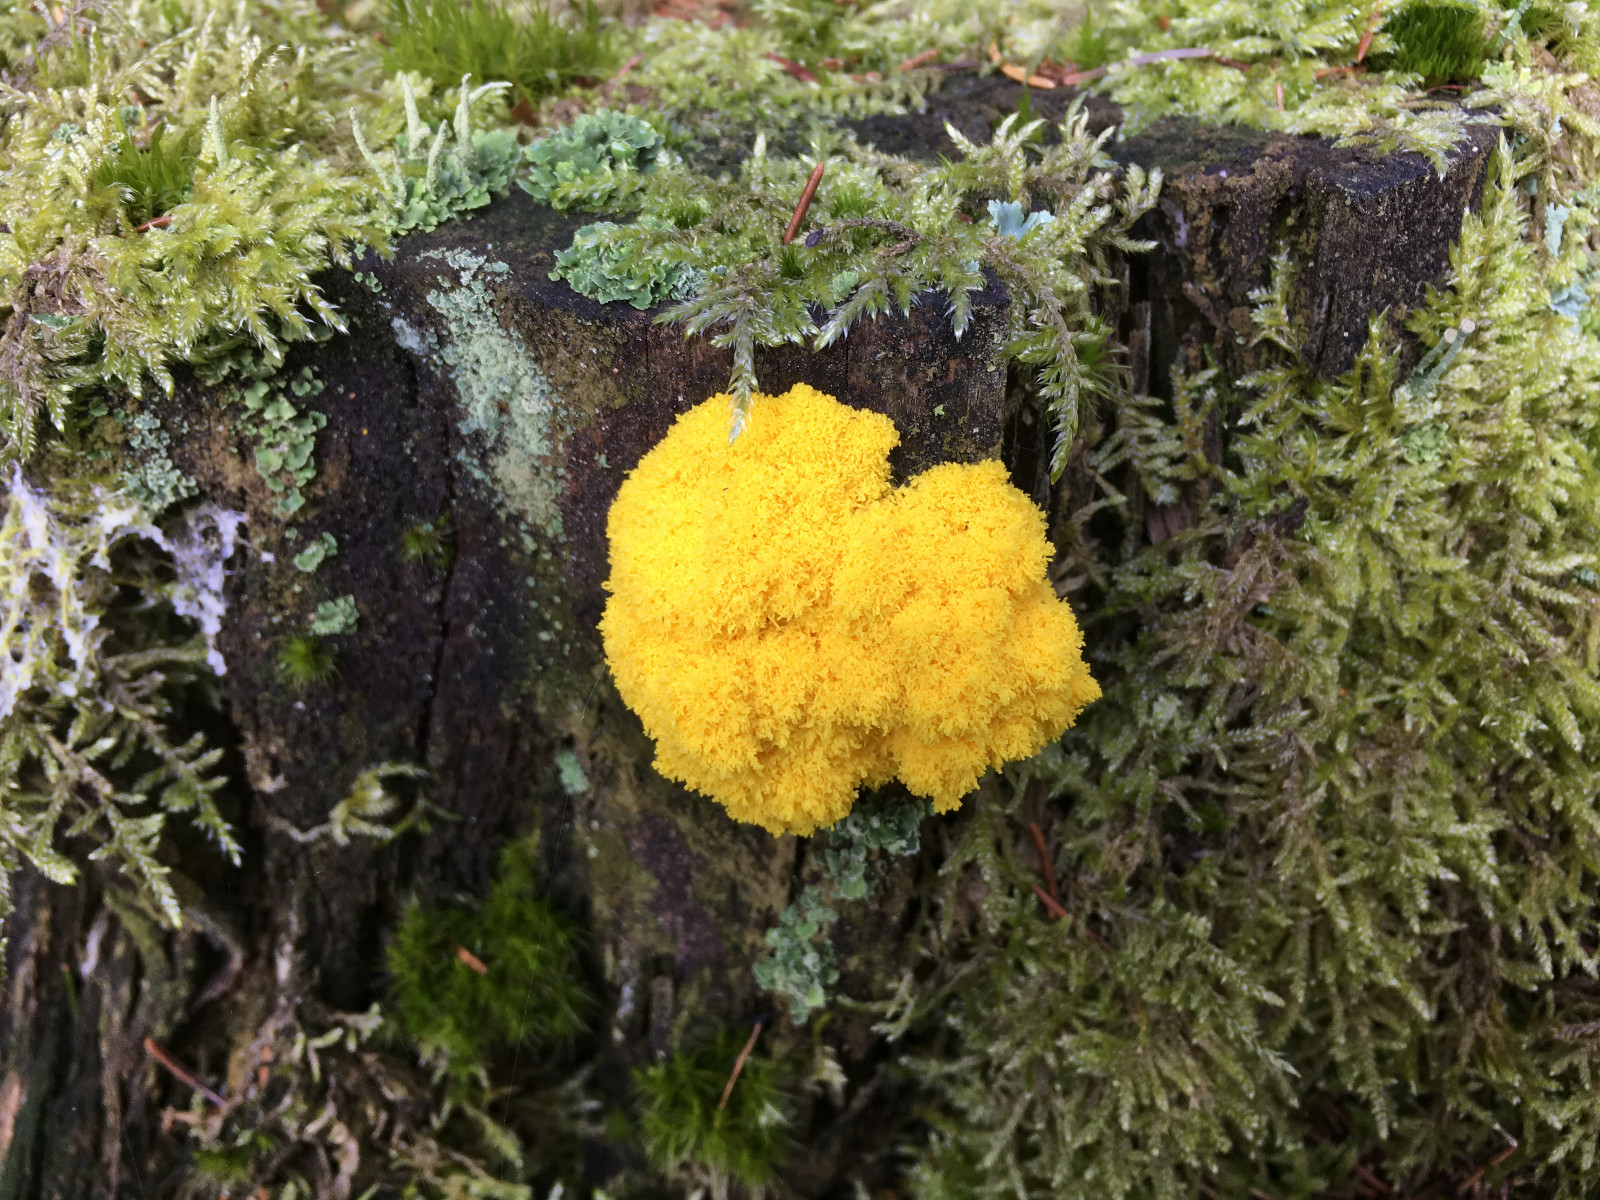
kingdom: Protozoa
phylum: Mycetozoa
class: Myxomycetes
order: Physarales
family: Physaraceae
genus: Fuligo
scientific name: Fuligo septica
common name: gul troldsmør
